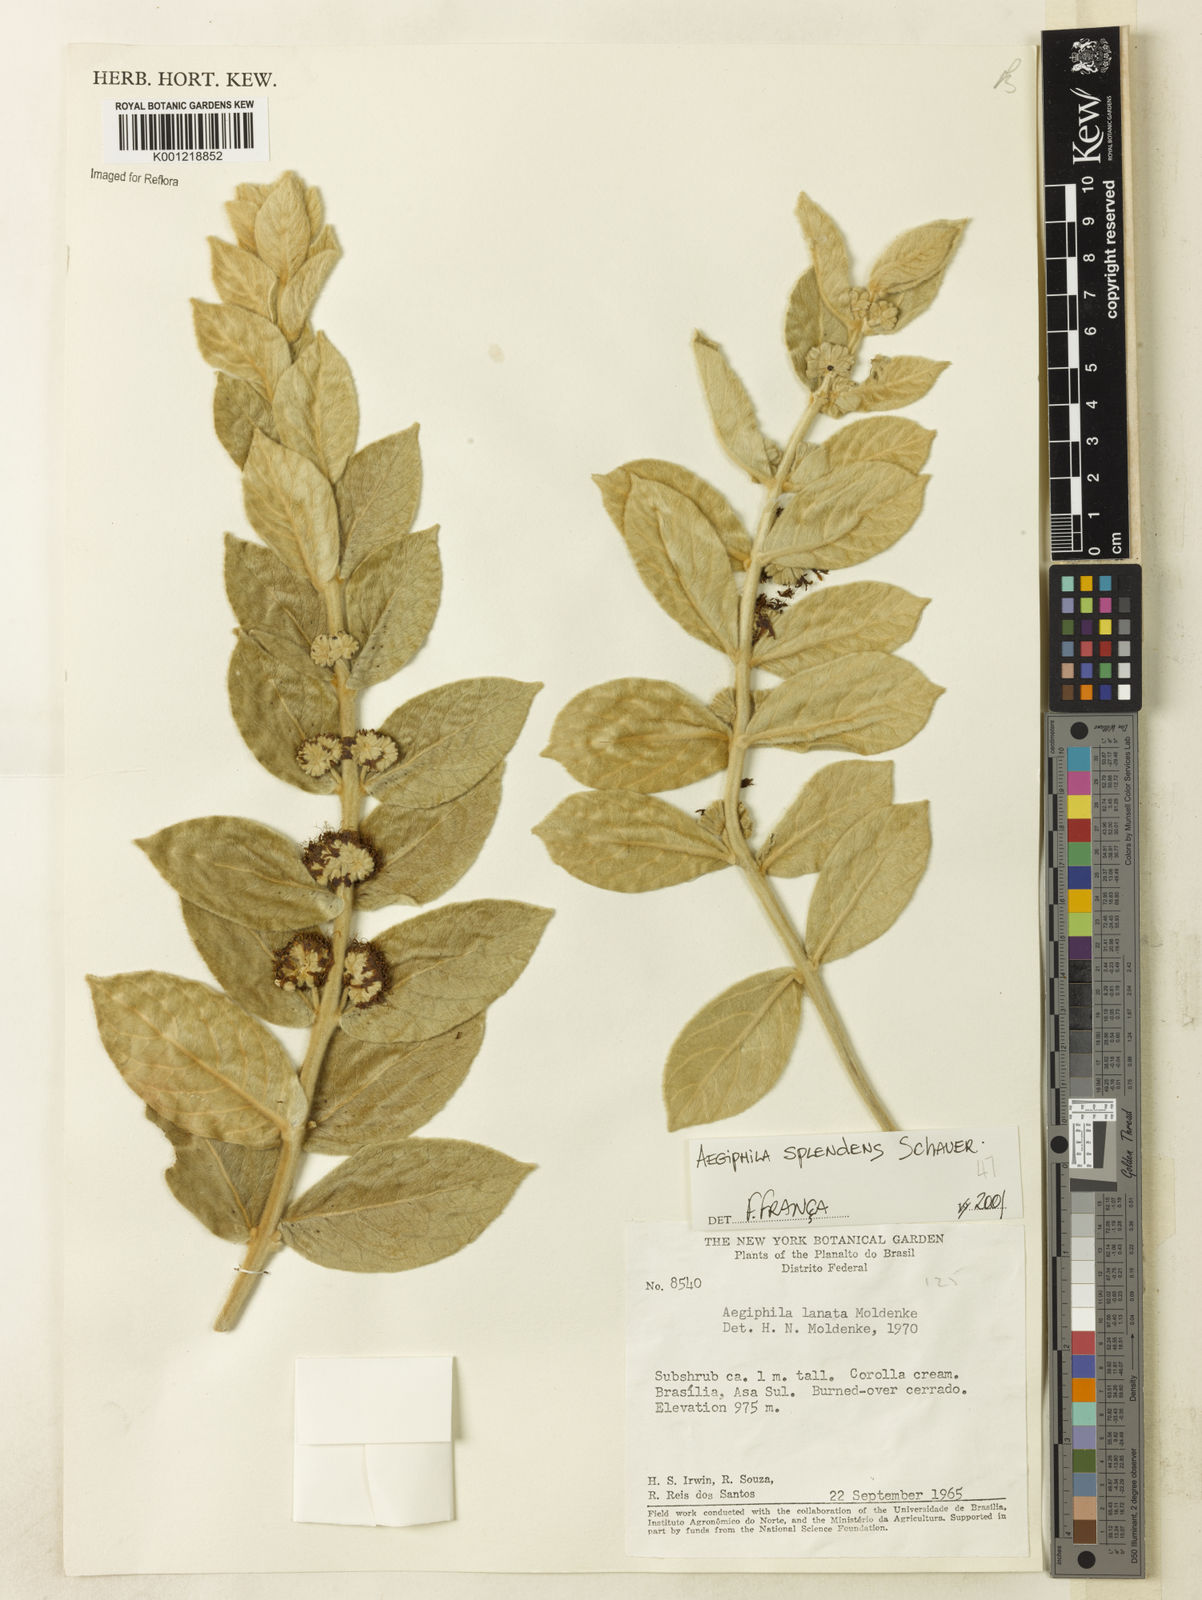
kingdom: Plantae
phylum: Tracheophyta
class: Magnoliopsida
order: Lamiales
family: Lamiaceae
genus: Aegiphila
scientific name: Aegiphila verticillata
